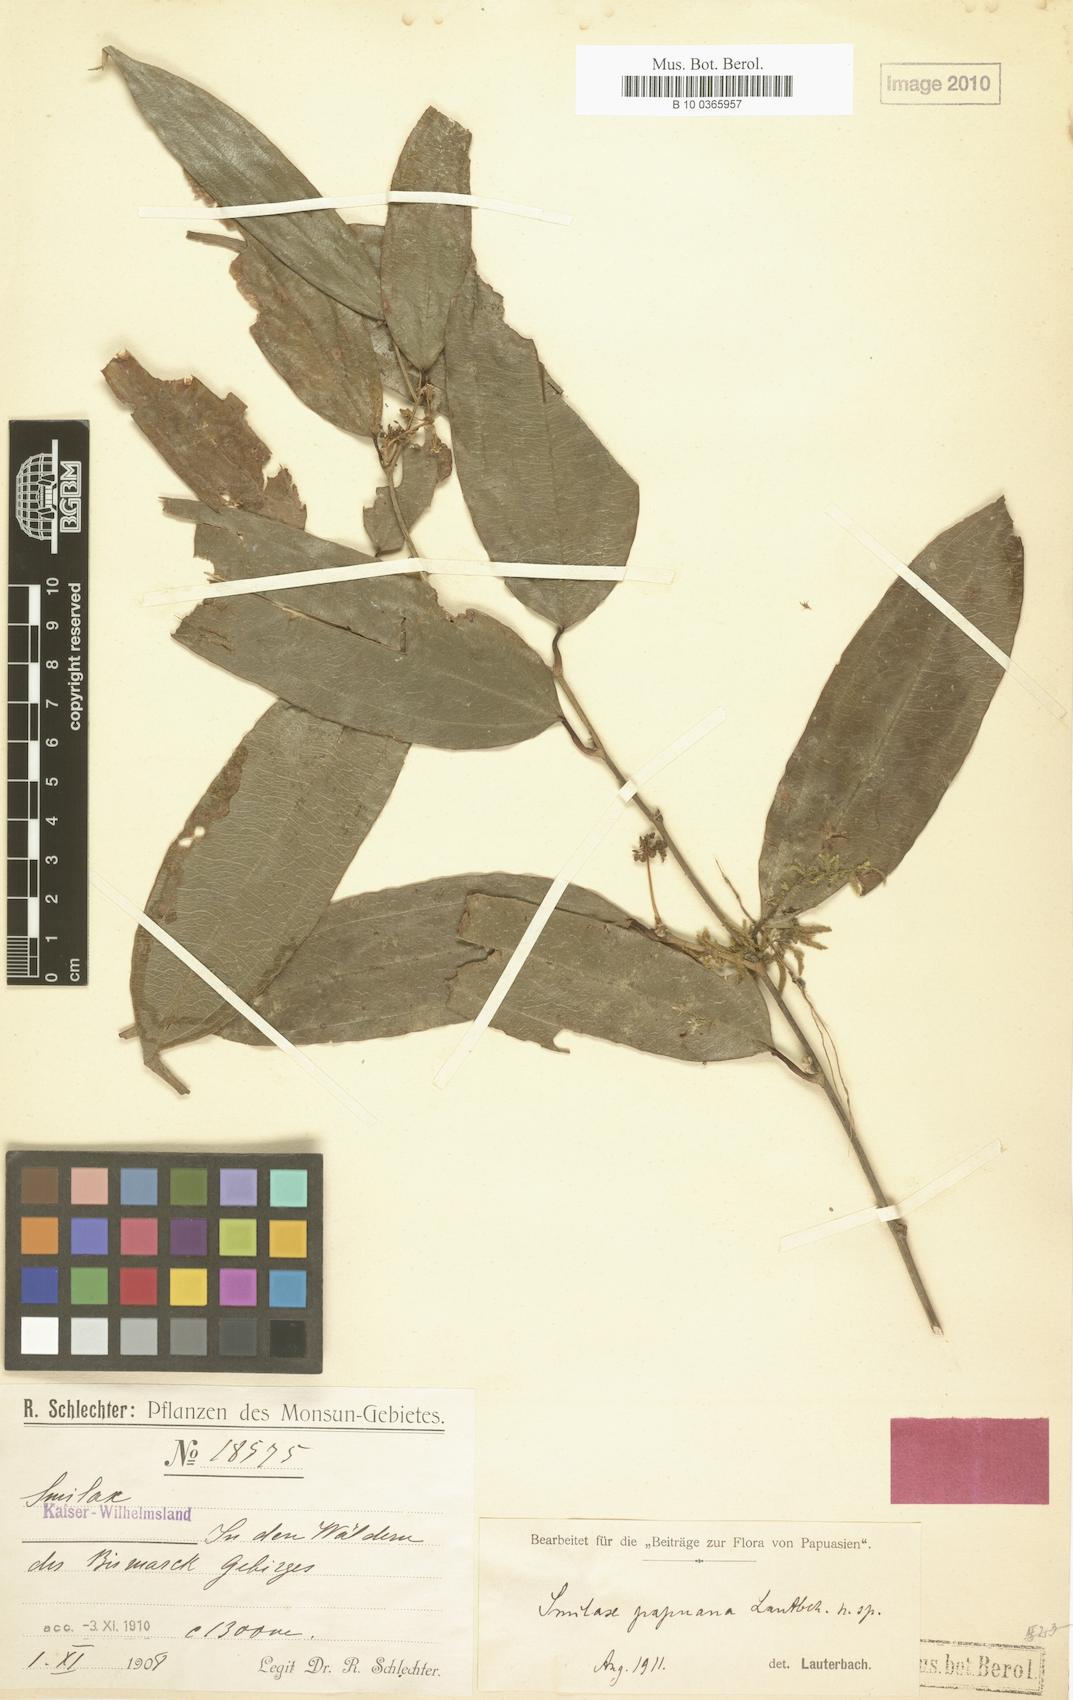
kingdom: Plantae
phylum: Tracheophyta
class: Liliopsida
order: Liliales
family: Smilacaceae
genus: Smilax
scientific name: Smilax papuana
